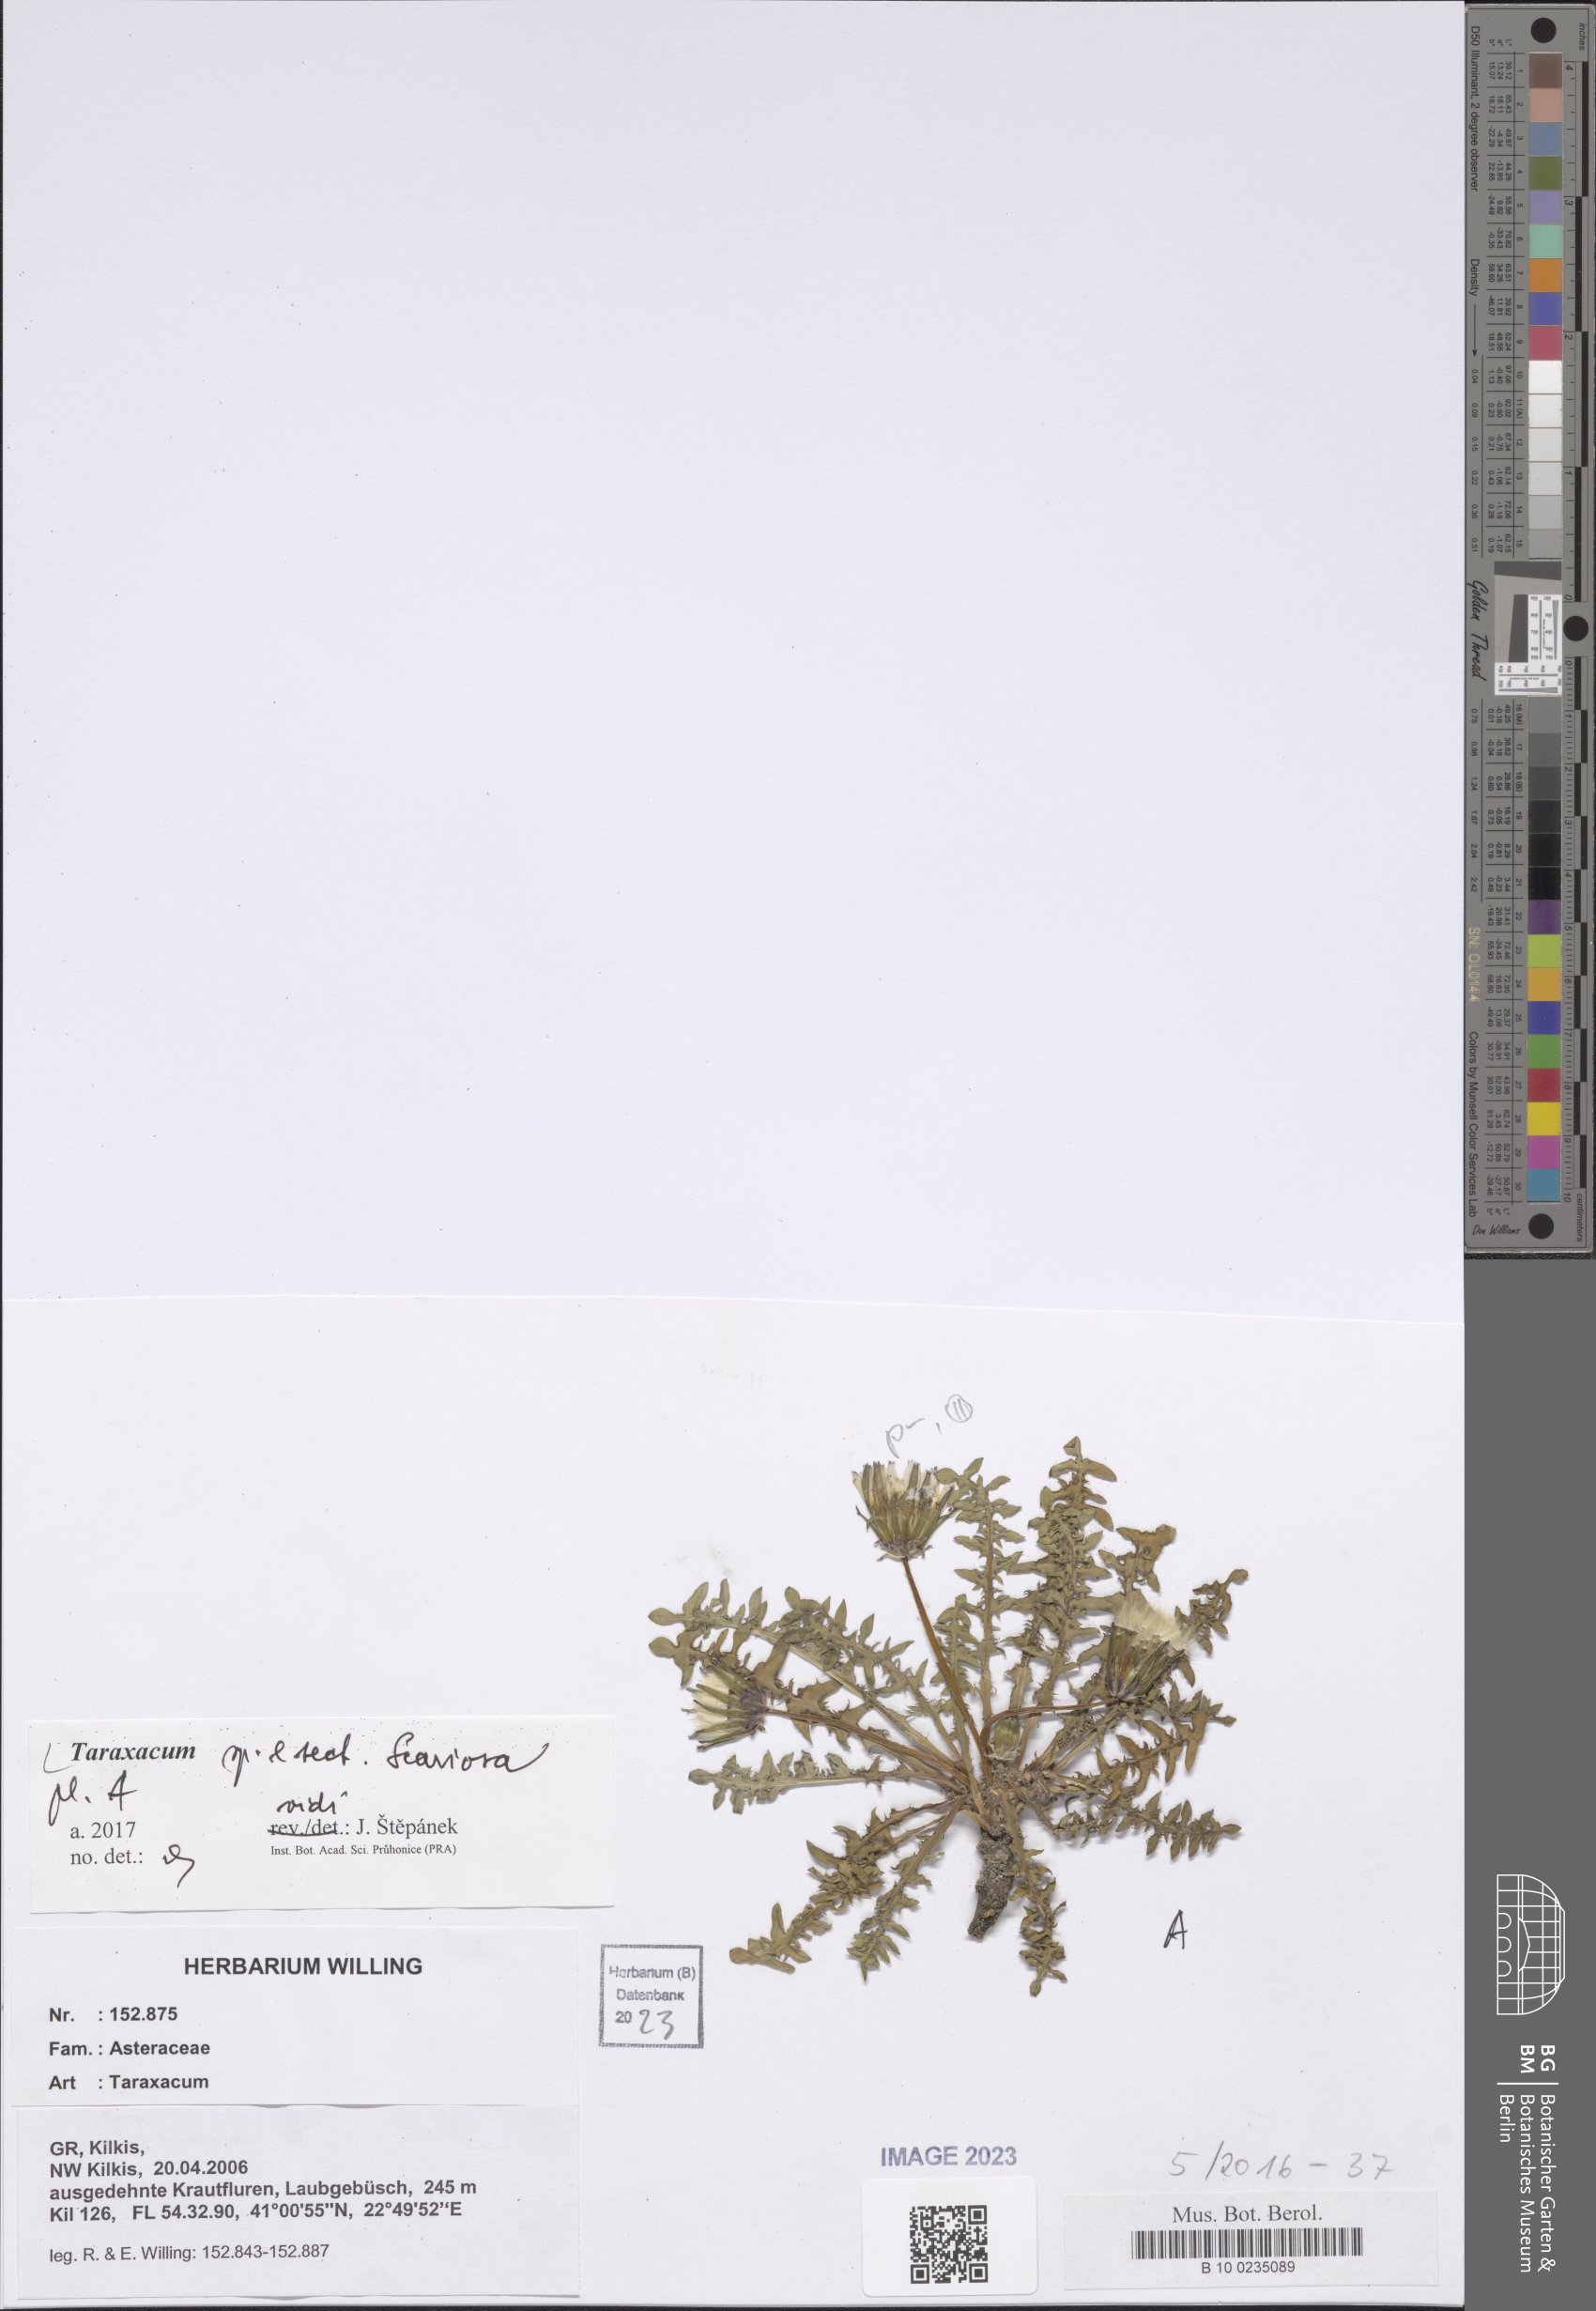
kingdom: Plantae
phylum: Tracheophyta
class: Magnoliopsida
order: Asterales
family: Asteraceae
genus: Taraxacum
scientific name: Taraxacum
